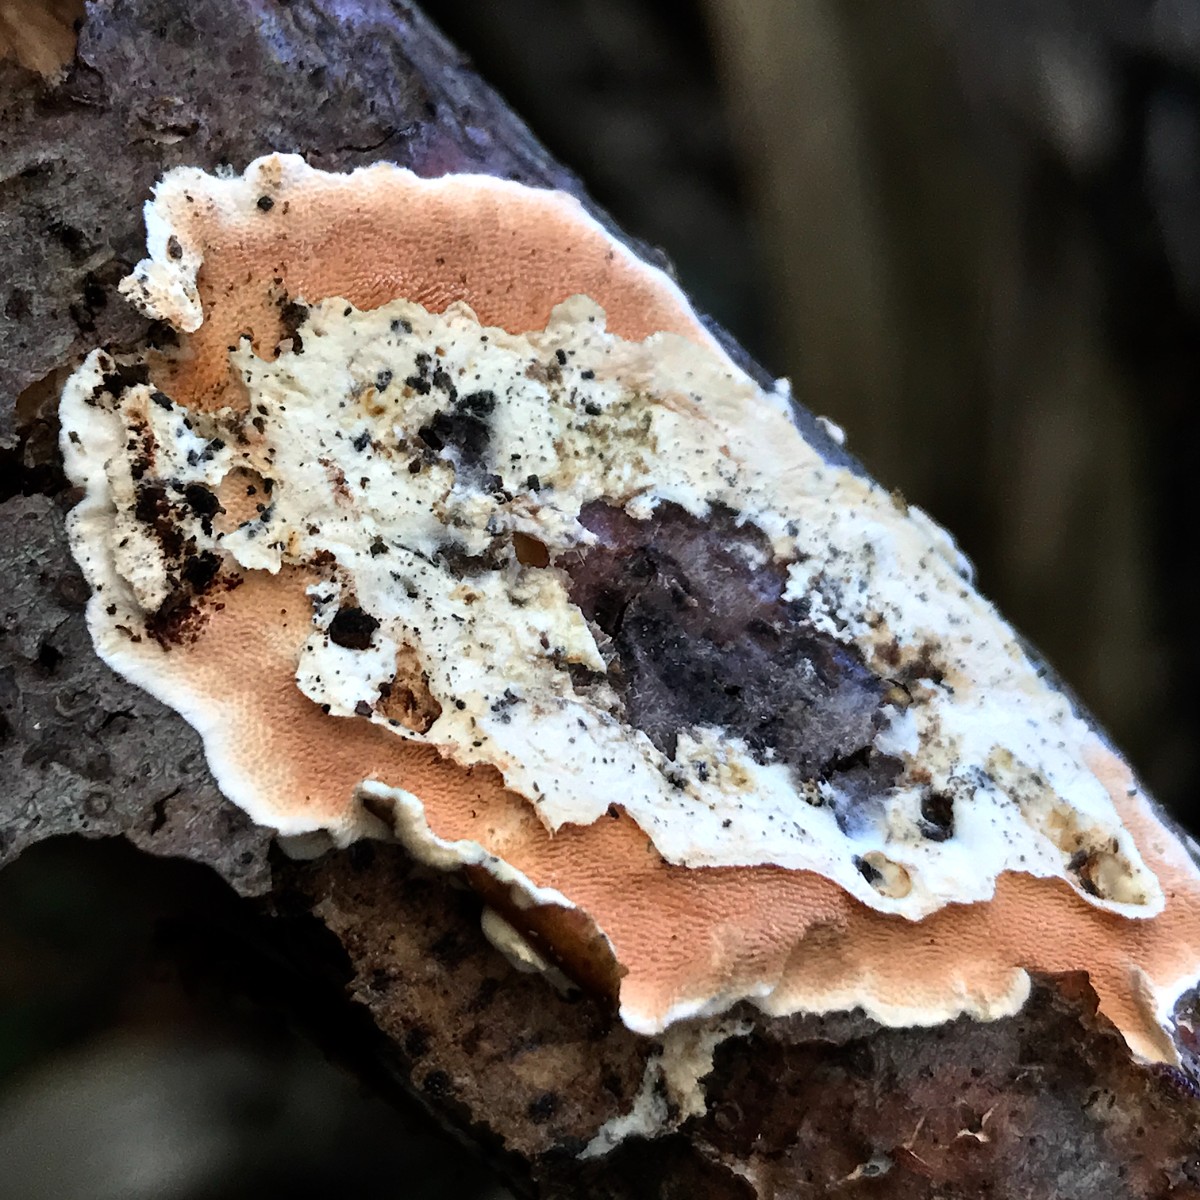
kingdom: Fungi
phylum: Basidiomycota
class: Agaricomycetes
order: Polyporales
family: Steccherinaceae
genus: Steccherinum
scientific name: Steccherinum ochraceum
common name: almindelig skønpig
